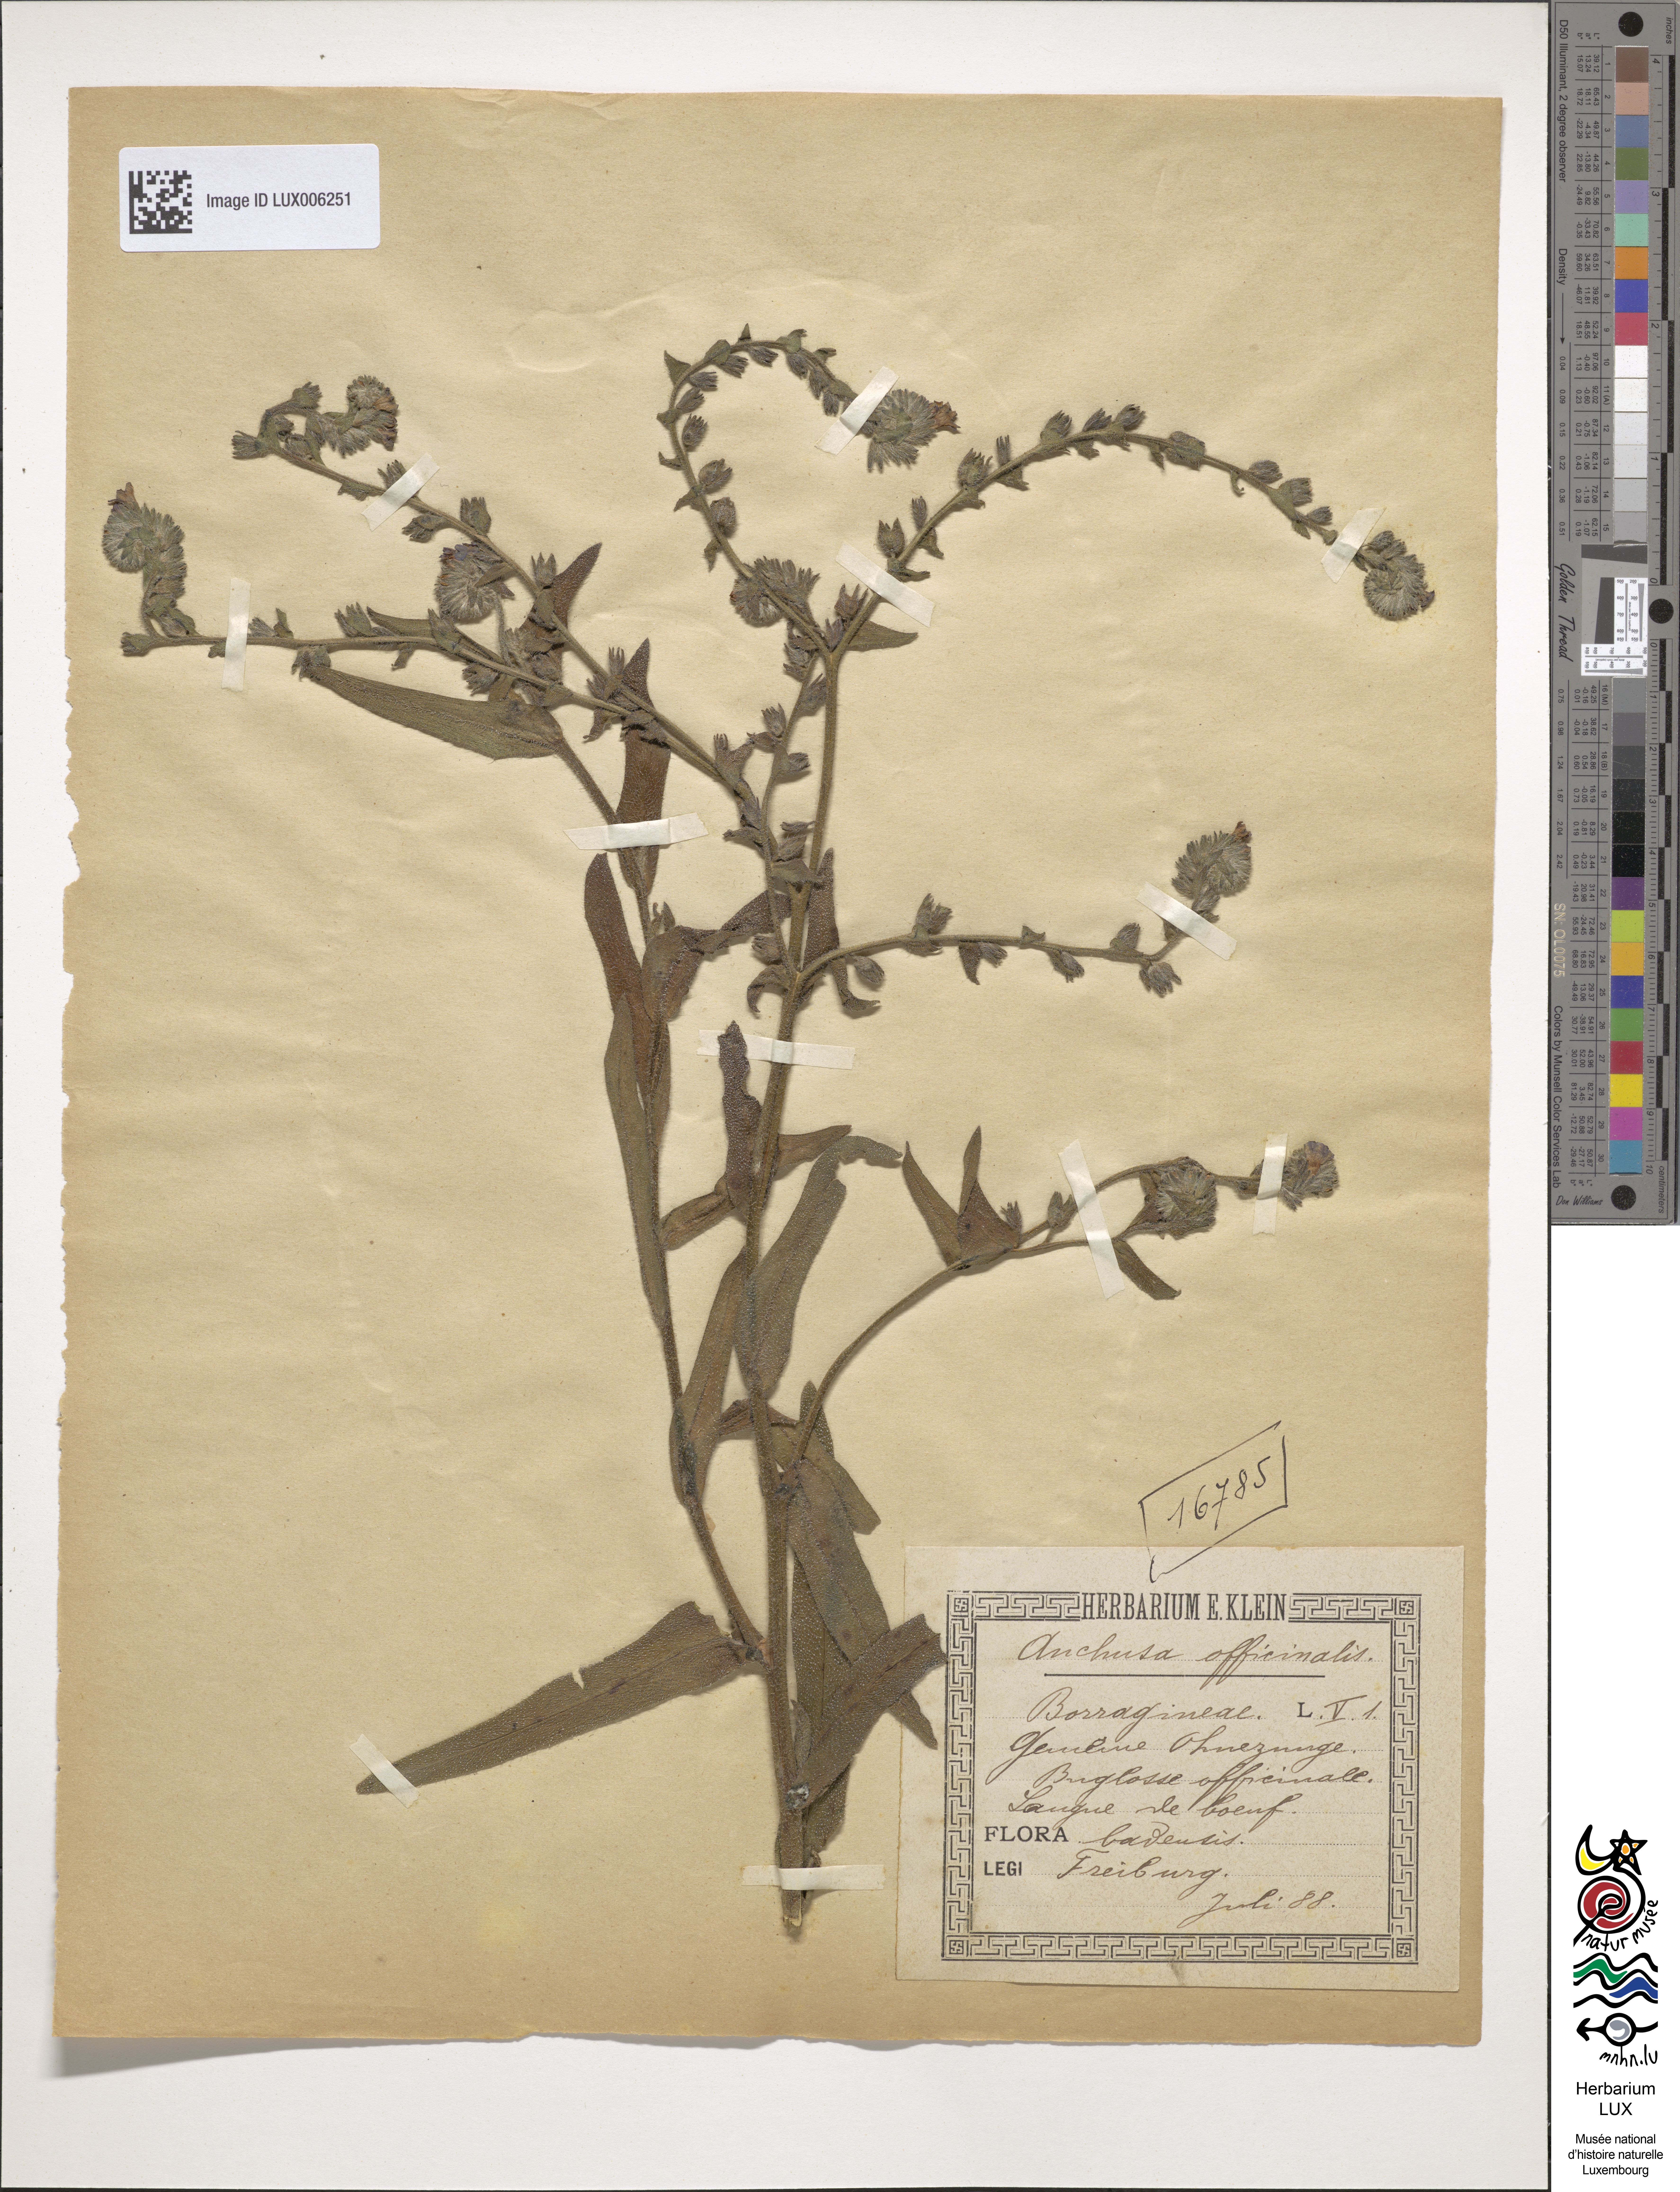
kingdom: Plantae
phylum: Tracheophyta
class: Magnoliopsida
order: Boraginales
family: Boraginaceae
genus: Anchusa
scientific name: Anchusa officinalis
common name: Alkanet
